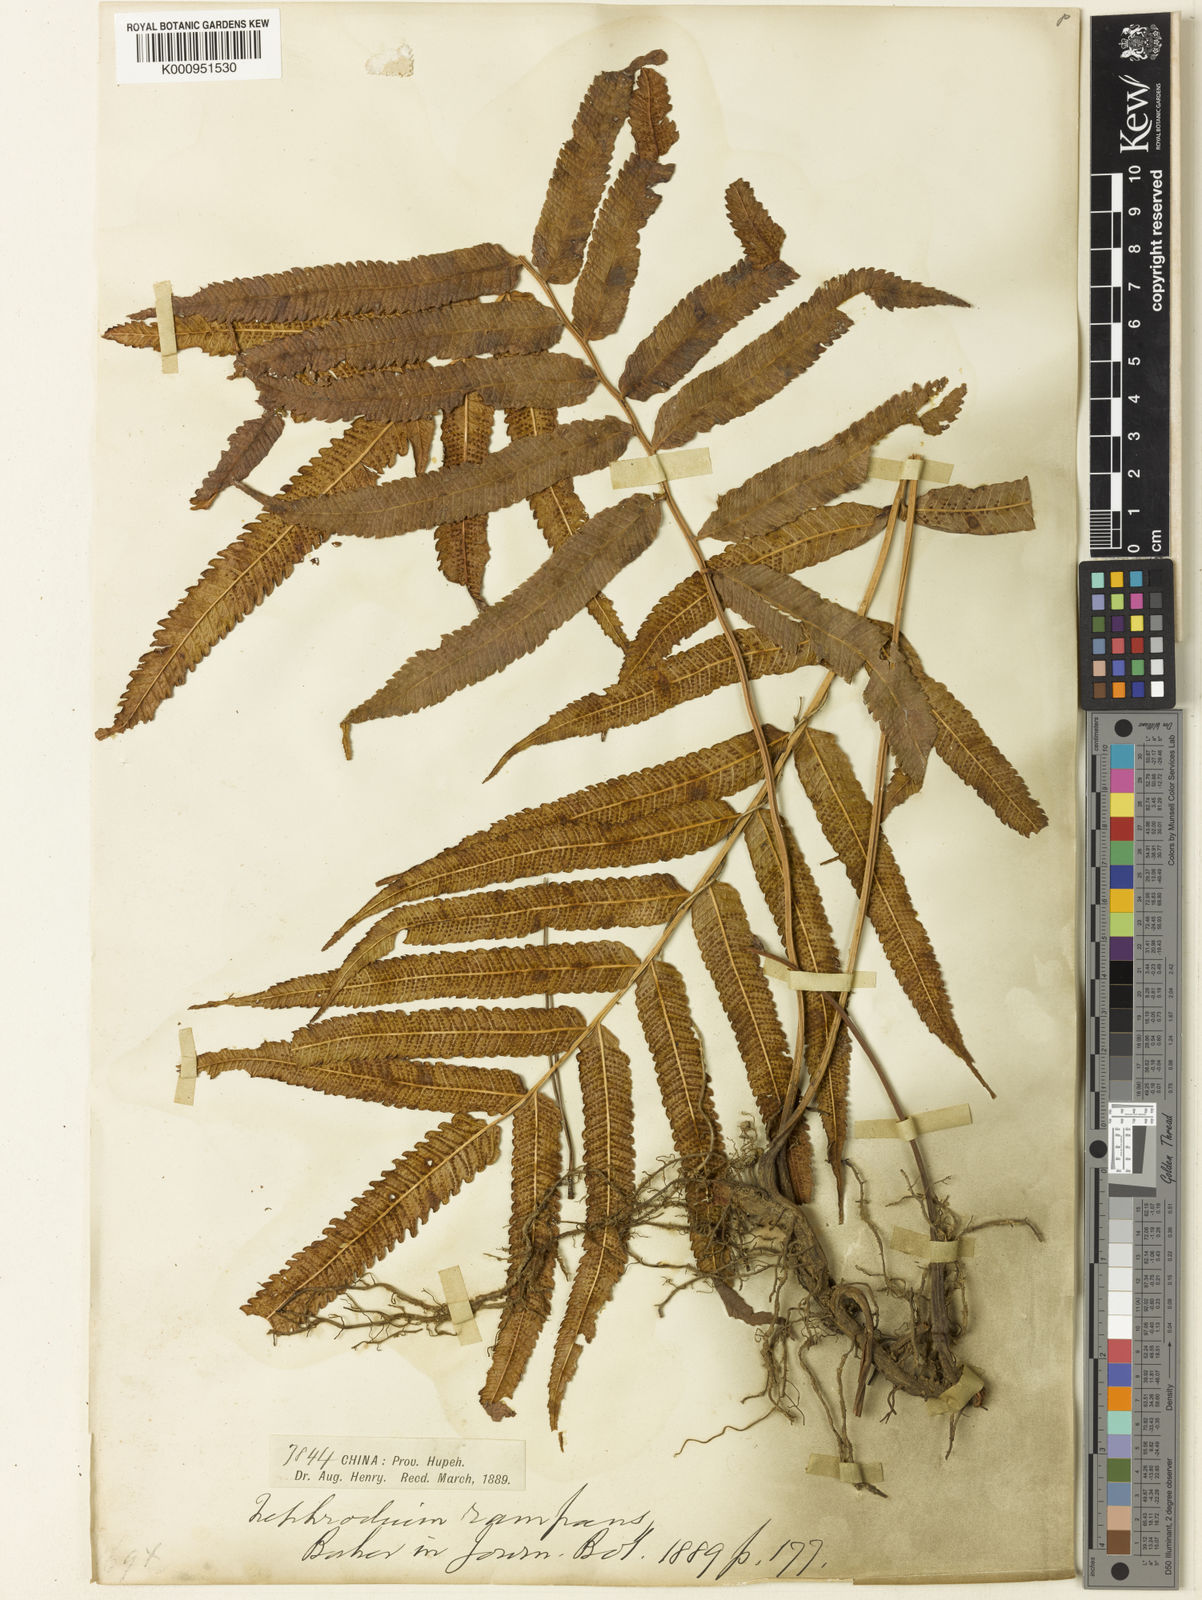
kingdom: Plantae
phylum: Tracheophyta
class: Polypodiopsida
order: Polypodiales
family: Thelypteridaceae
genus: Menisciopsis
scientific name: Menisciopsis penangiana
